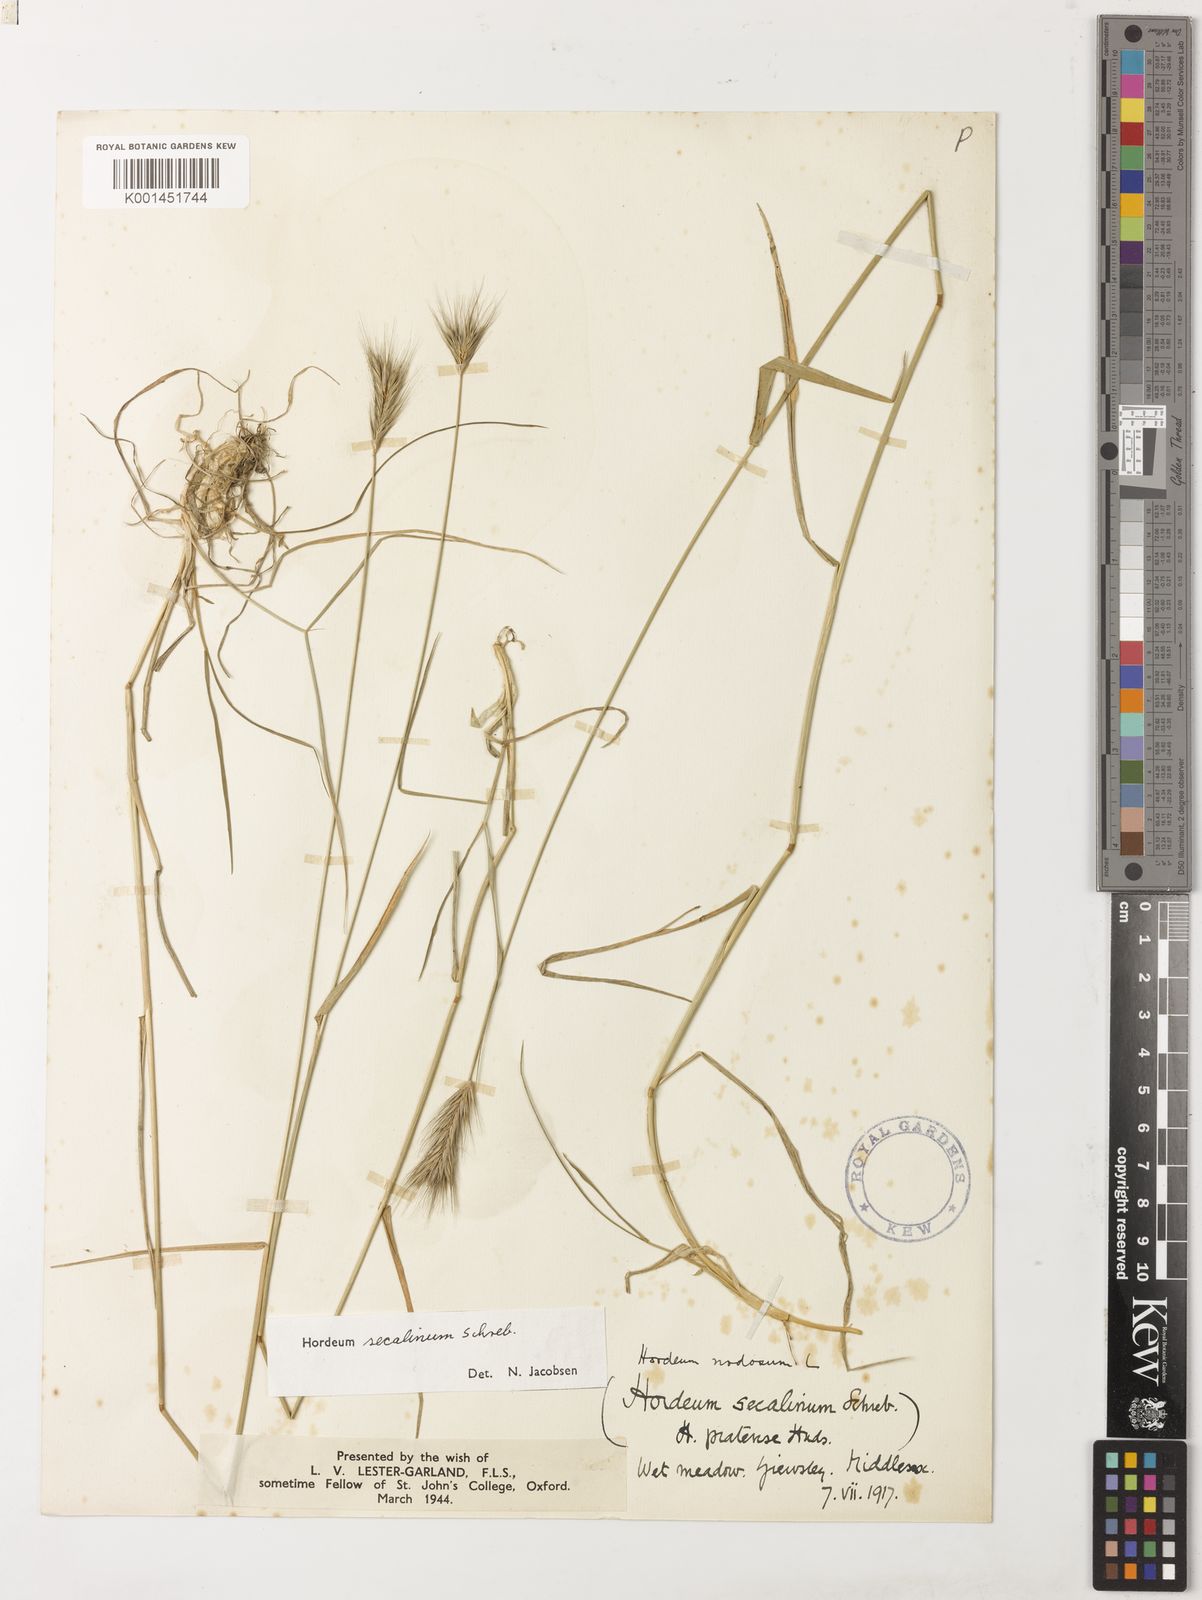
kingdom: Plantae
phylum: Tracheophyta
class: Liliopsida
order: Poales
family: Poaceae
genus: Hordeum
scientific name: Hordeum secalinum
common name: Meadow barley
